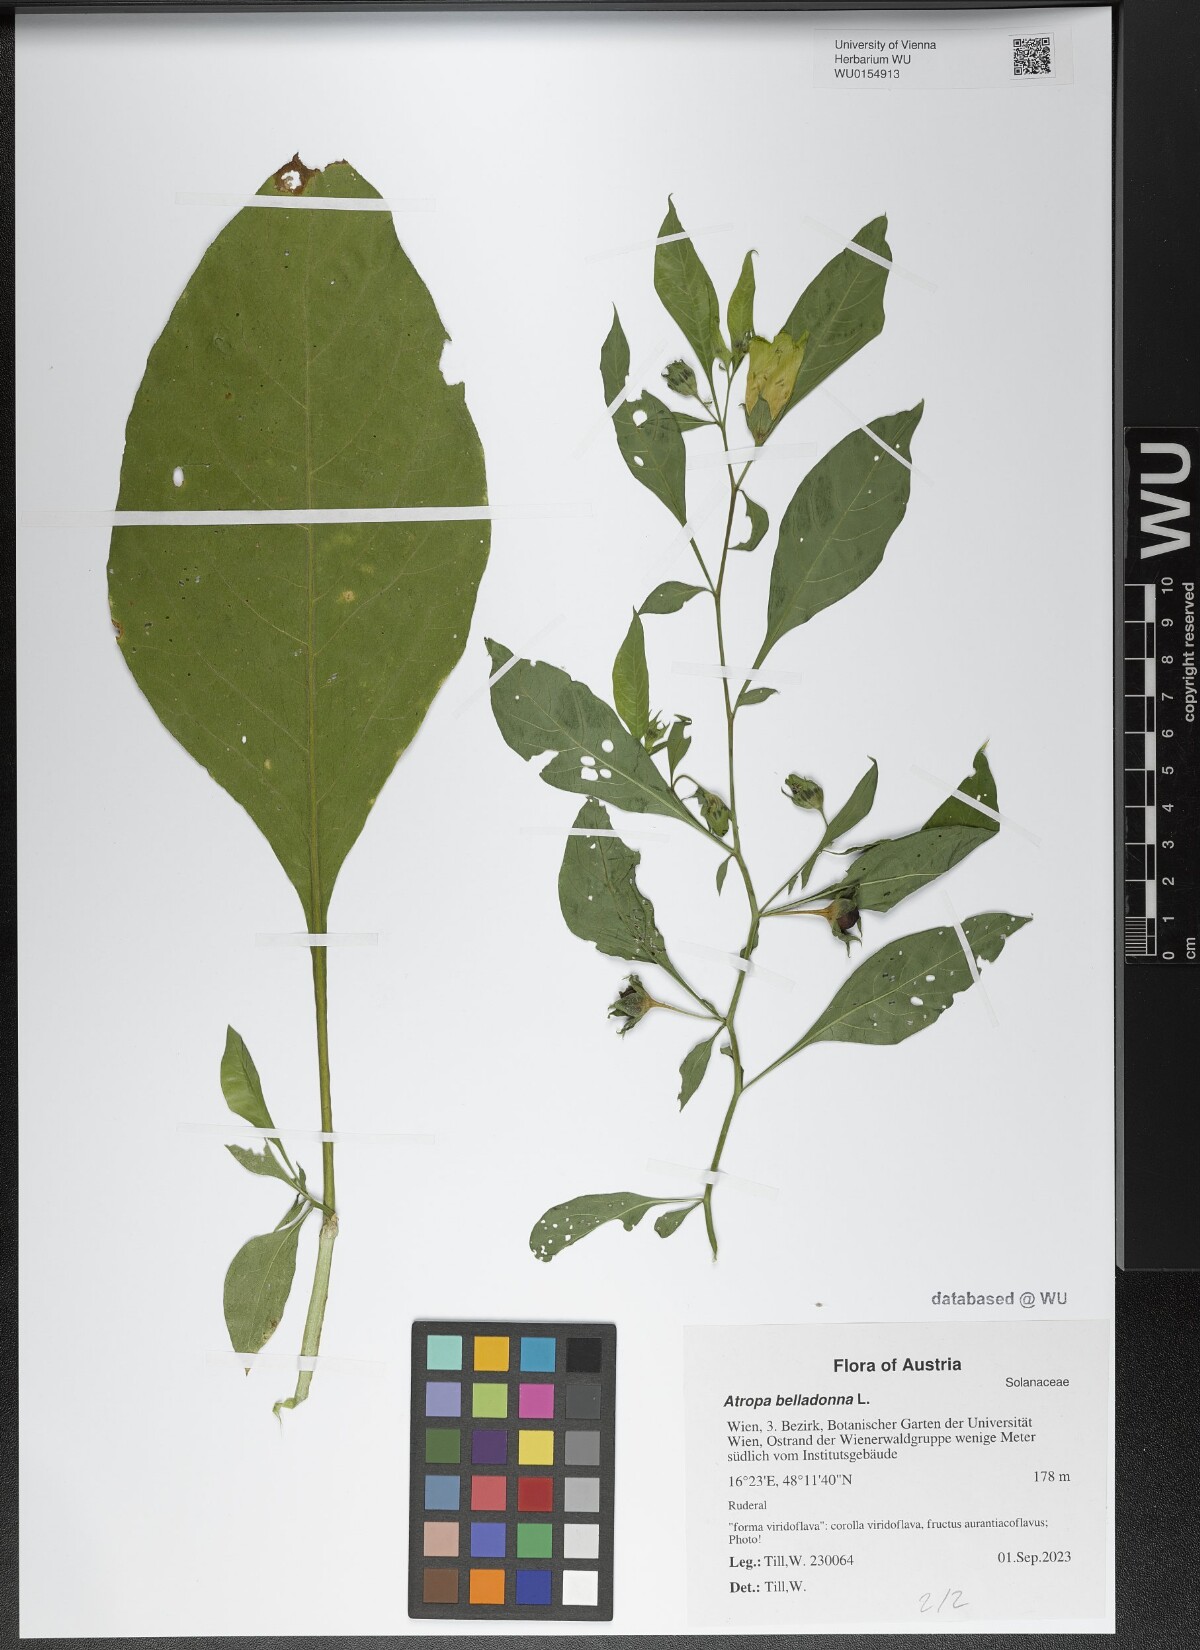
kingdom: Plantae
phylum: Tracheophyta
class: Magnoliopsida
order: Solanales
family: Solanaceae
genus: Atropa
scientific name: Atropa belladonna
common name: Deadly nightshade
